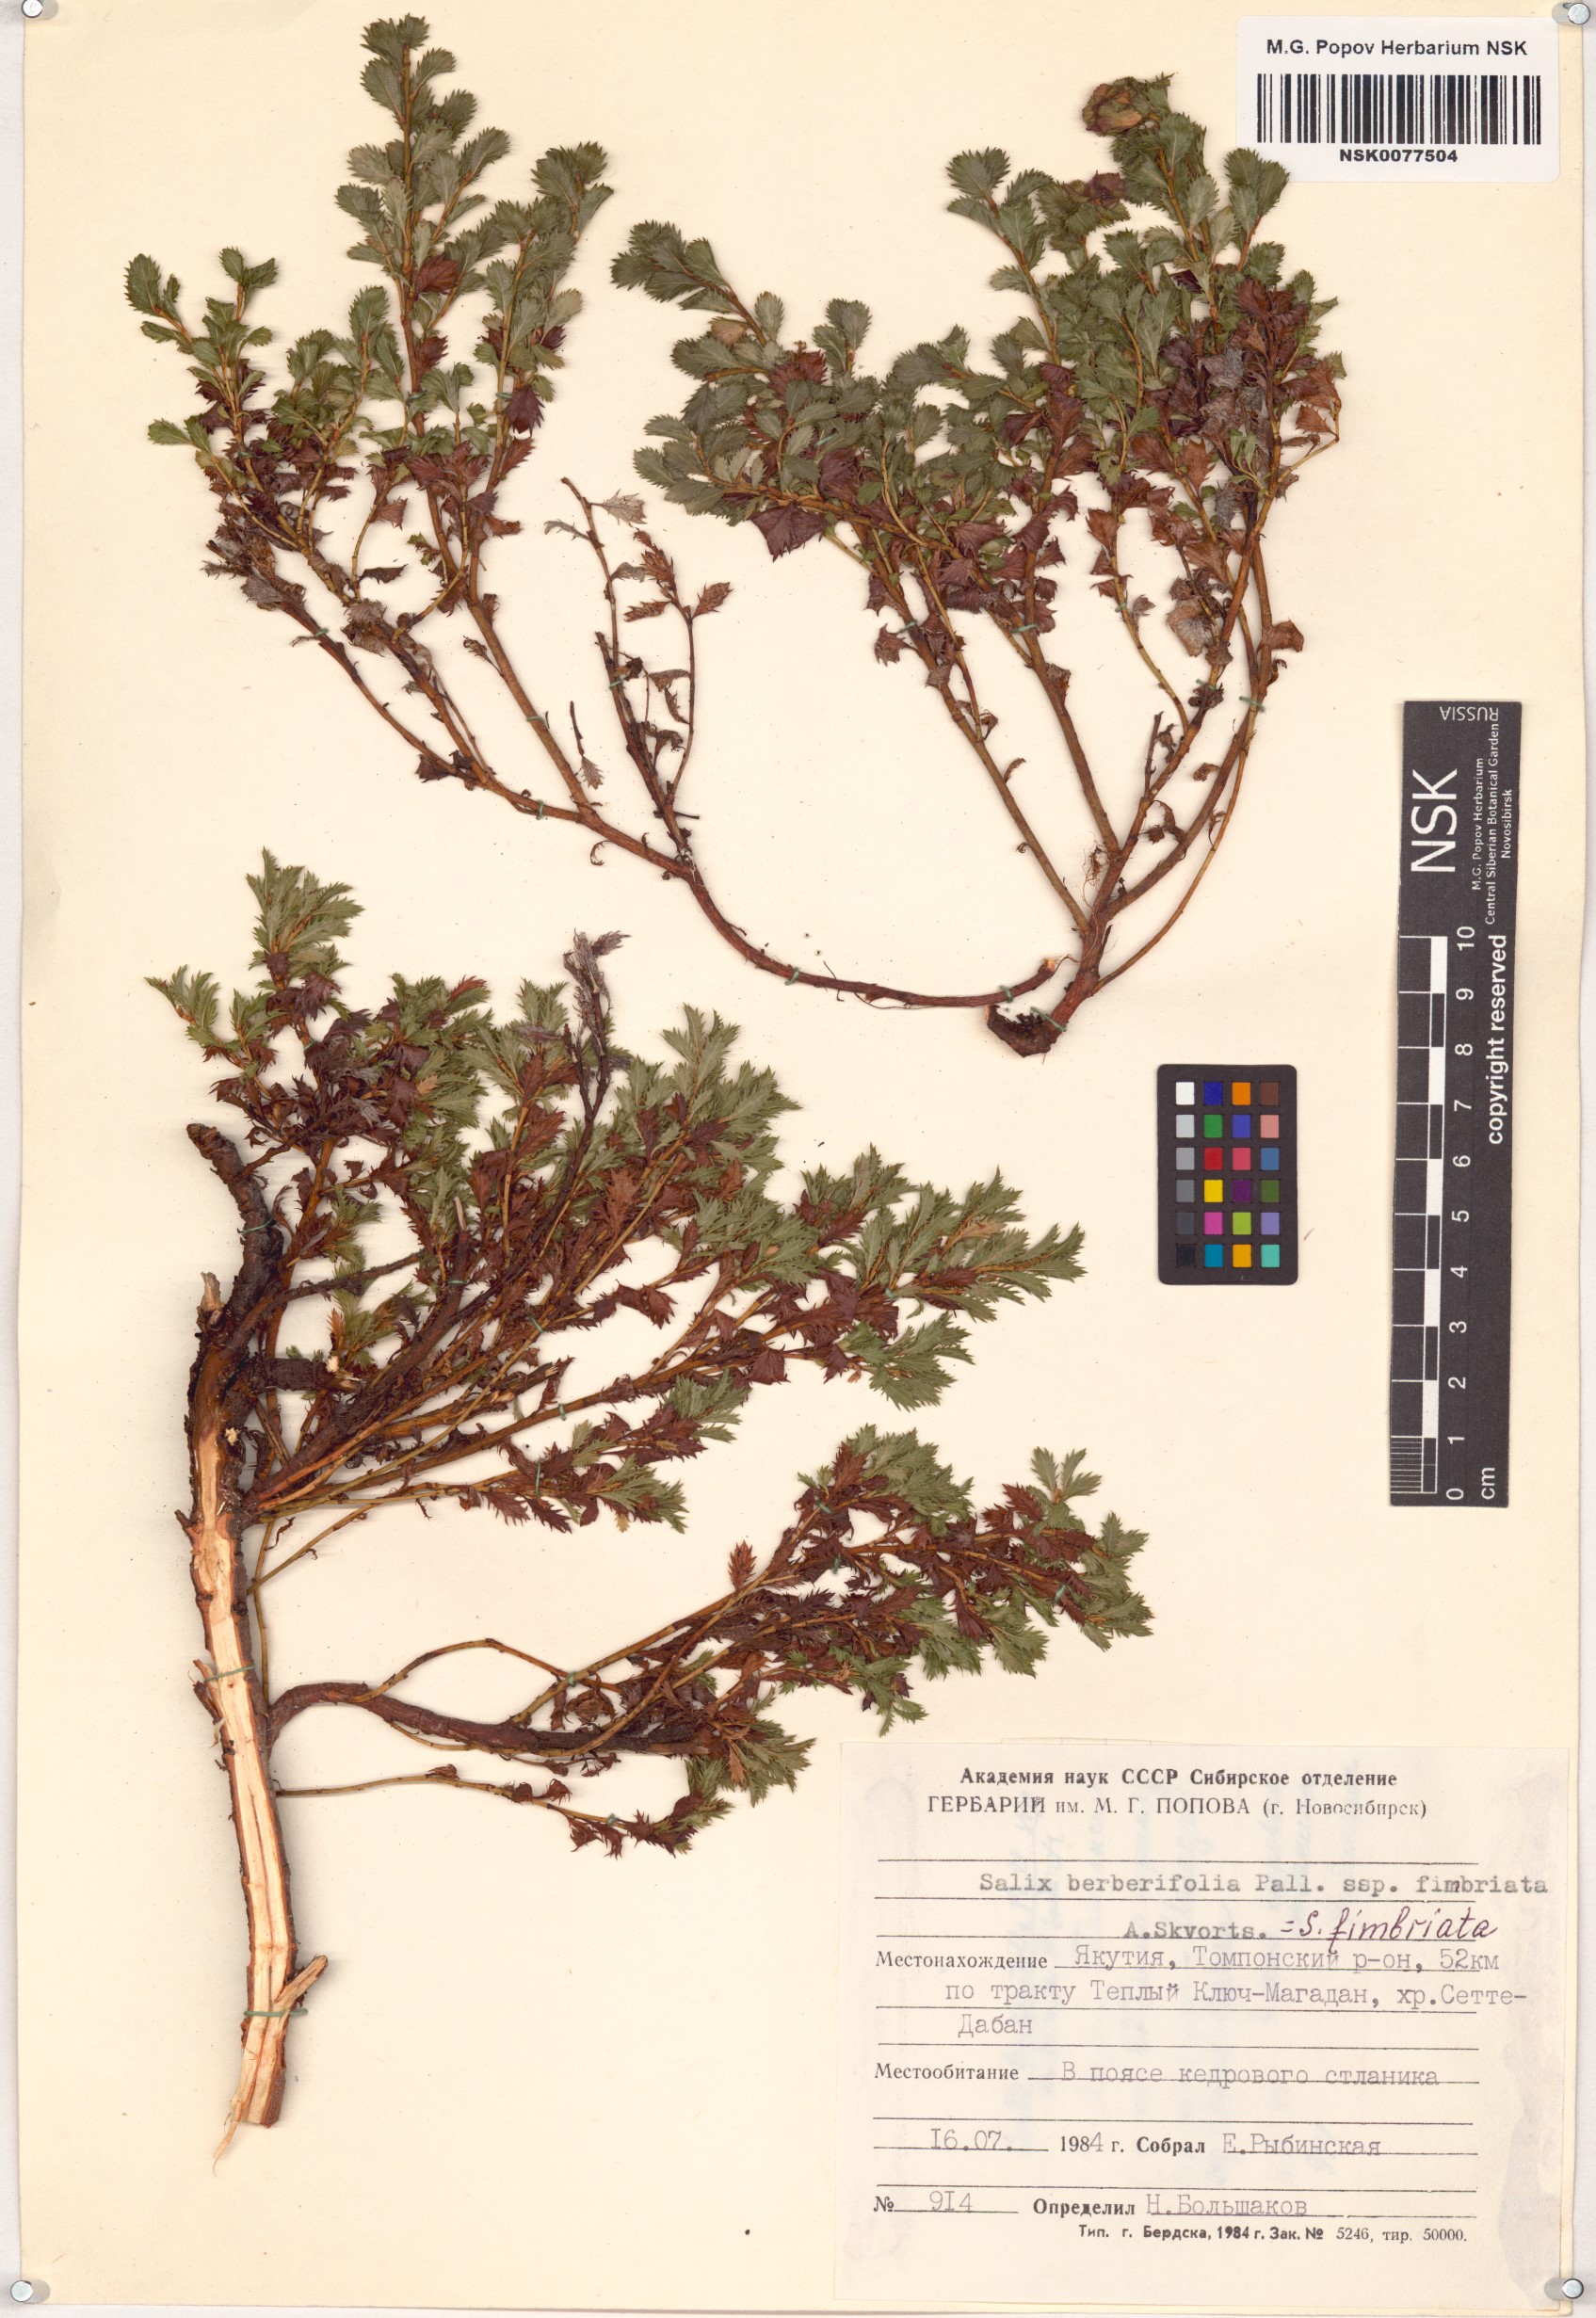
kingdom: Plantae
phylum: Tracheophyta
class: Magnoliopsida
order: Malpighiales
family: Salicaceae
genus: Salix
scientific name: Salix berberifolia
